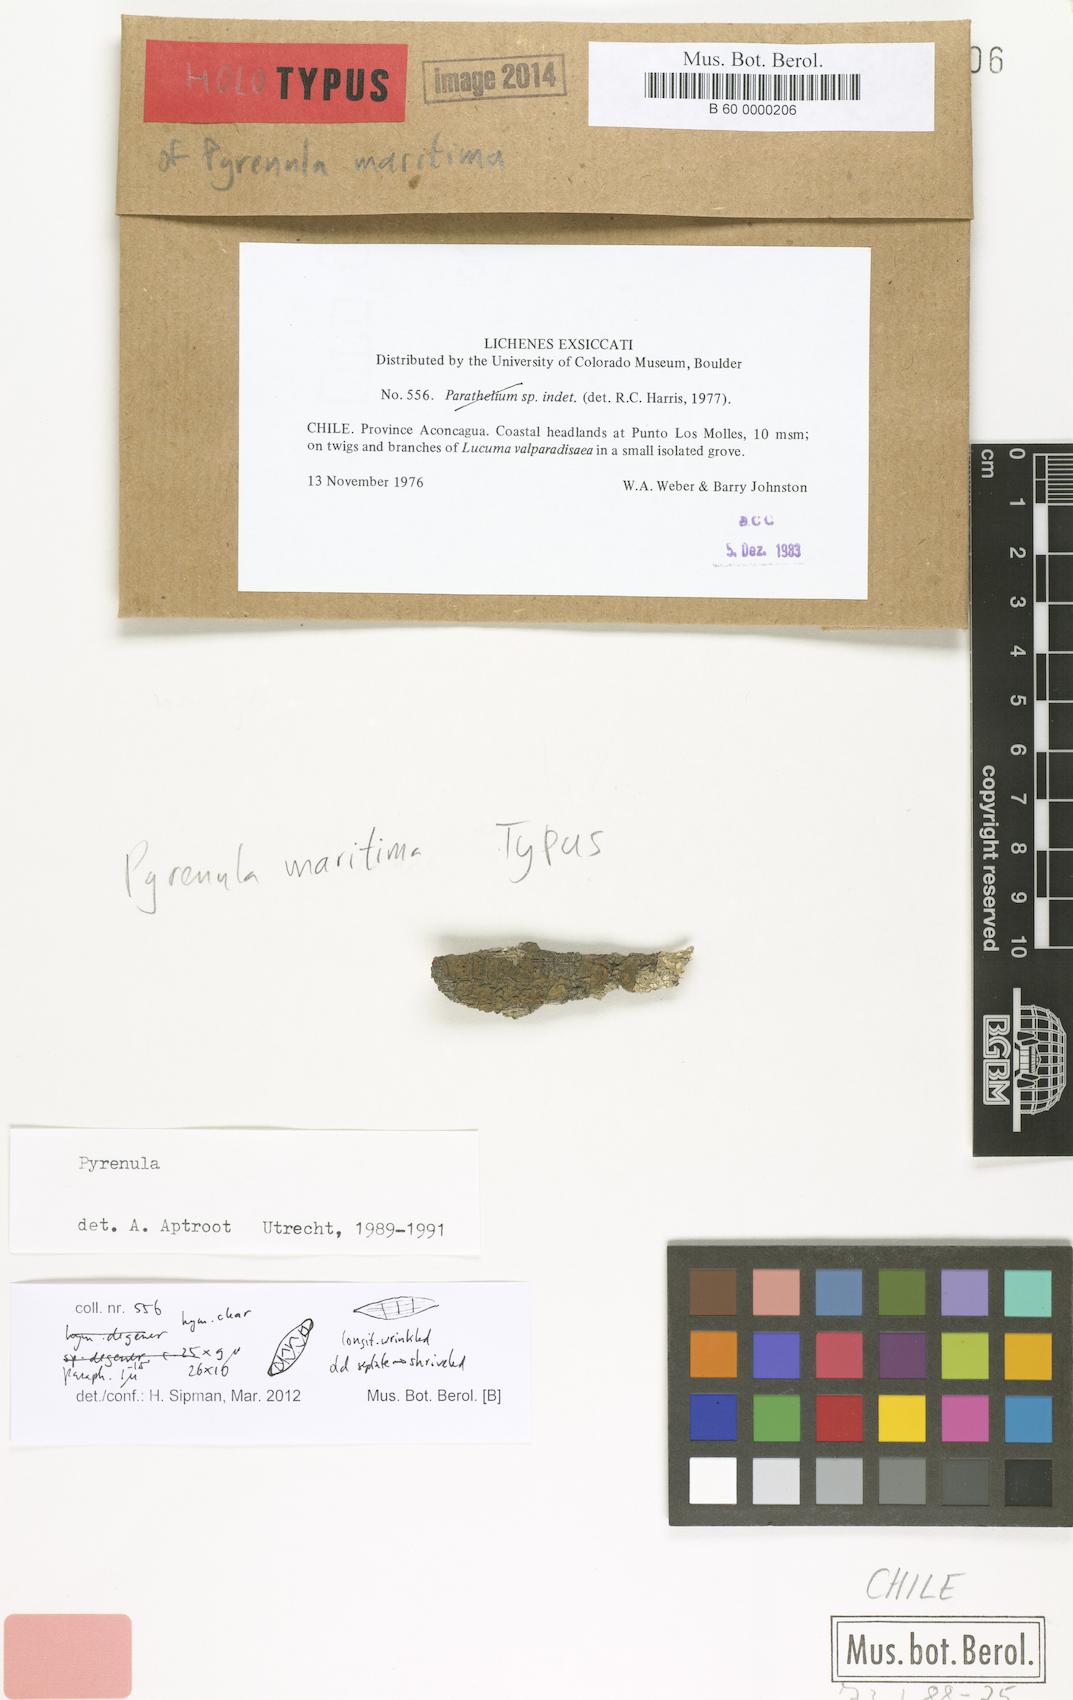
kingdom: Fungi
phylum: Ascomycota
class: Eurotiomycetes
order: Pyrenulales
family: Pyrenulaceae
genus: Pyrenula
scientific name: Pyrenula maritima
